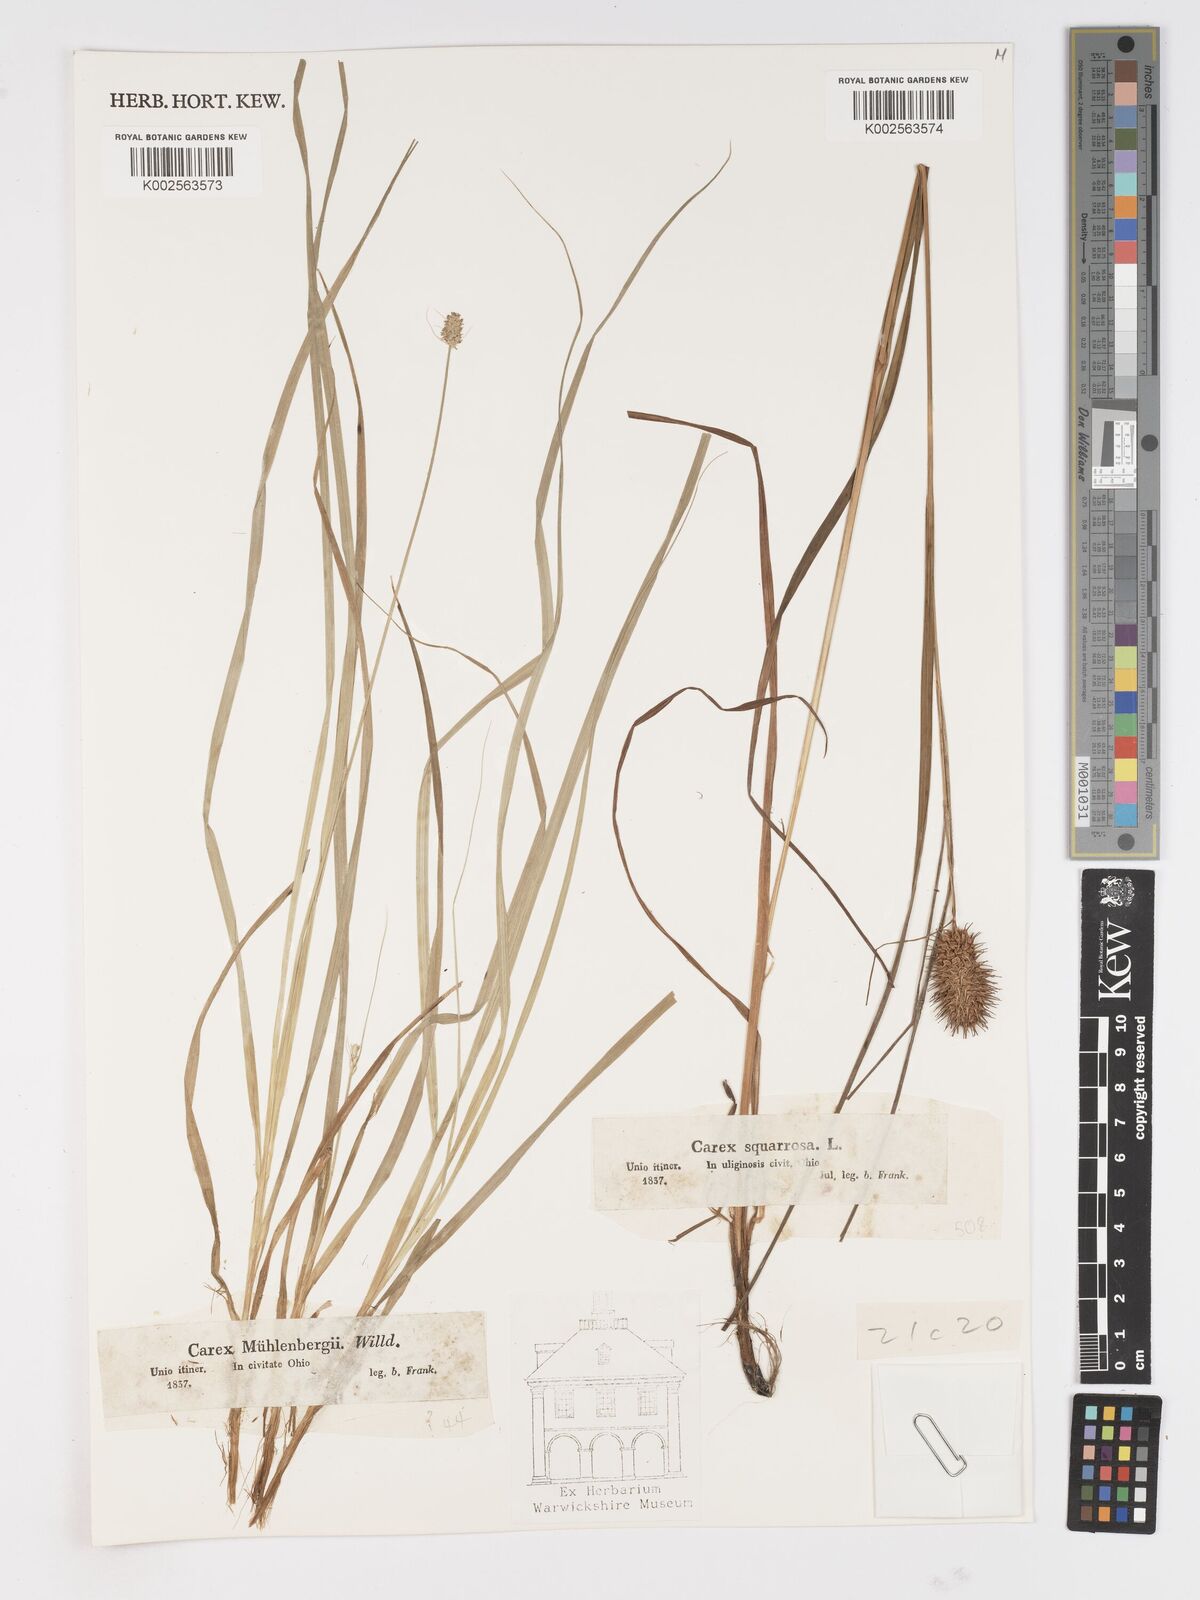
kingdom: Plantae
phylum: Tracheophyta
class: Liliopsida
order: Poales
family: Cyperaceae
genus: Carex
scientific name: Carex squarrosa
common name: Narrow-leaved cattail sedge
